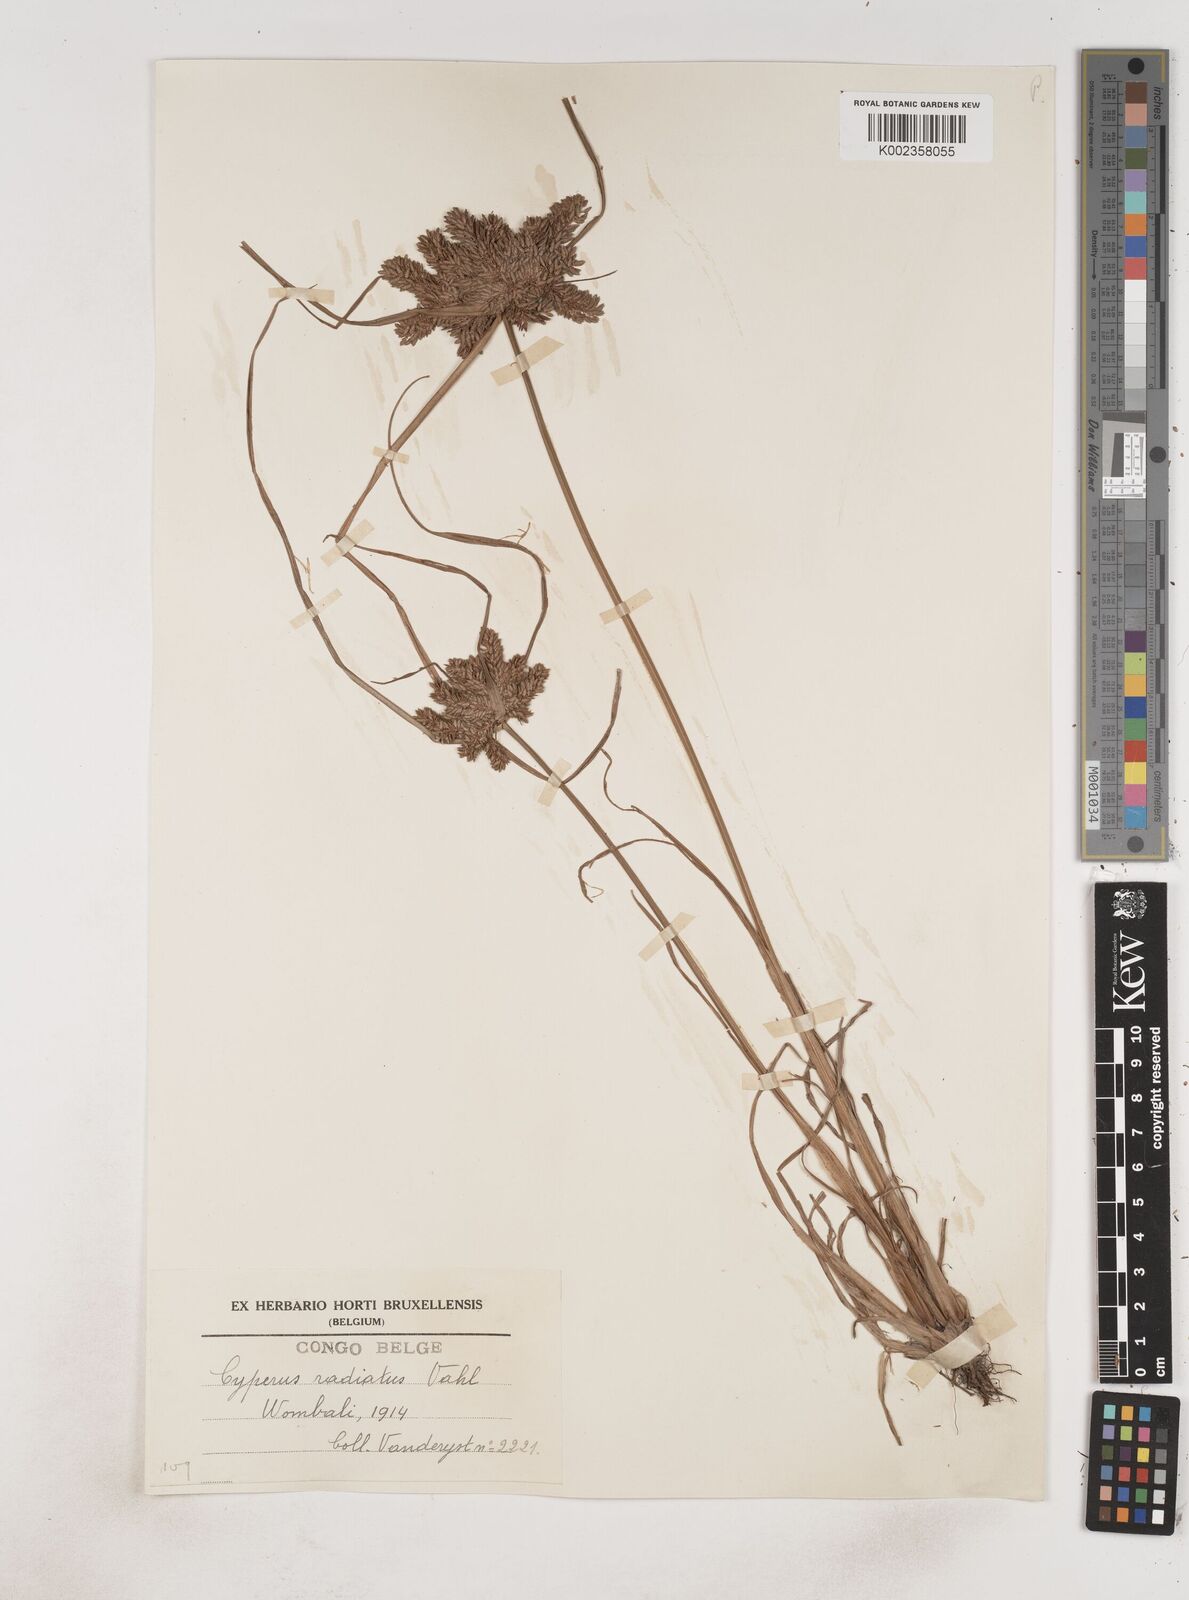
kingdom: Plantae
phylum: Tracheophyta
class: Liliopsida
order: Poales
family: Cyperaceae
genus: Cyperus
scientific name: Cyperus imbricatus
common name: Shingle flatsedge
